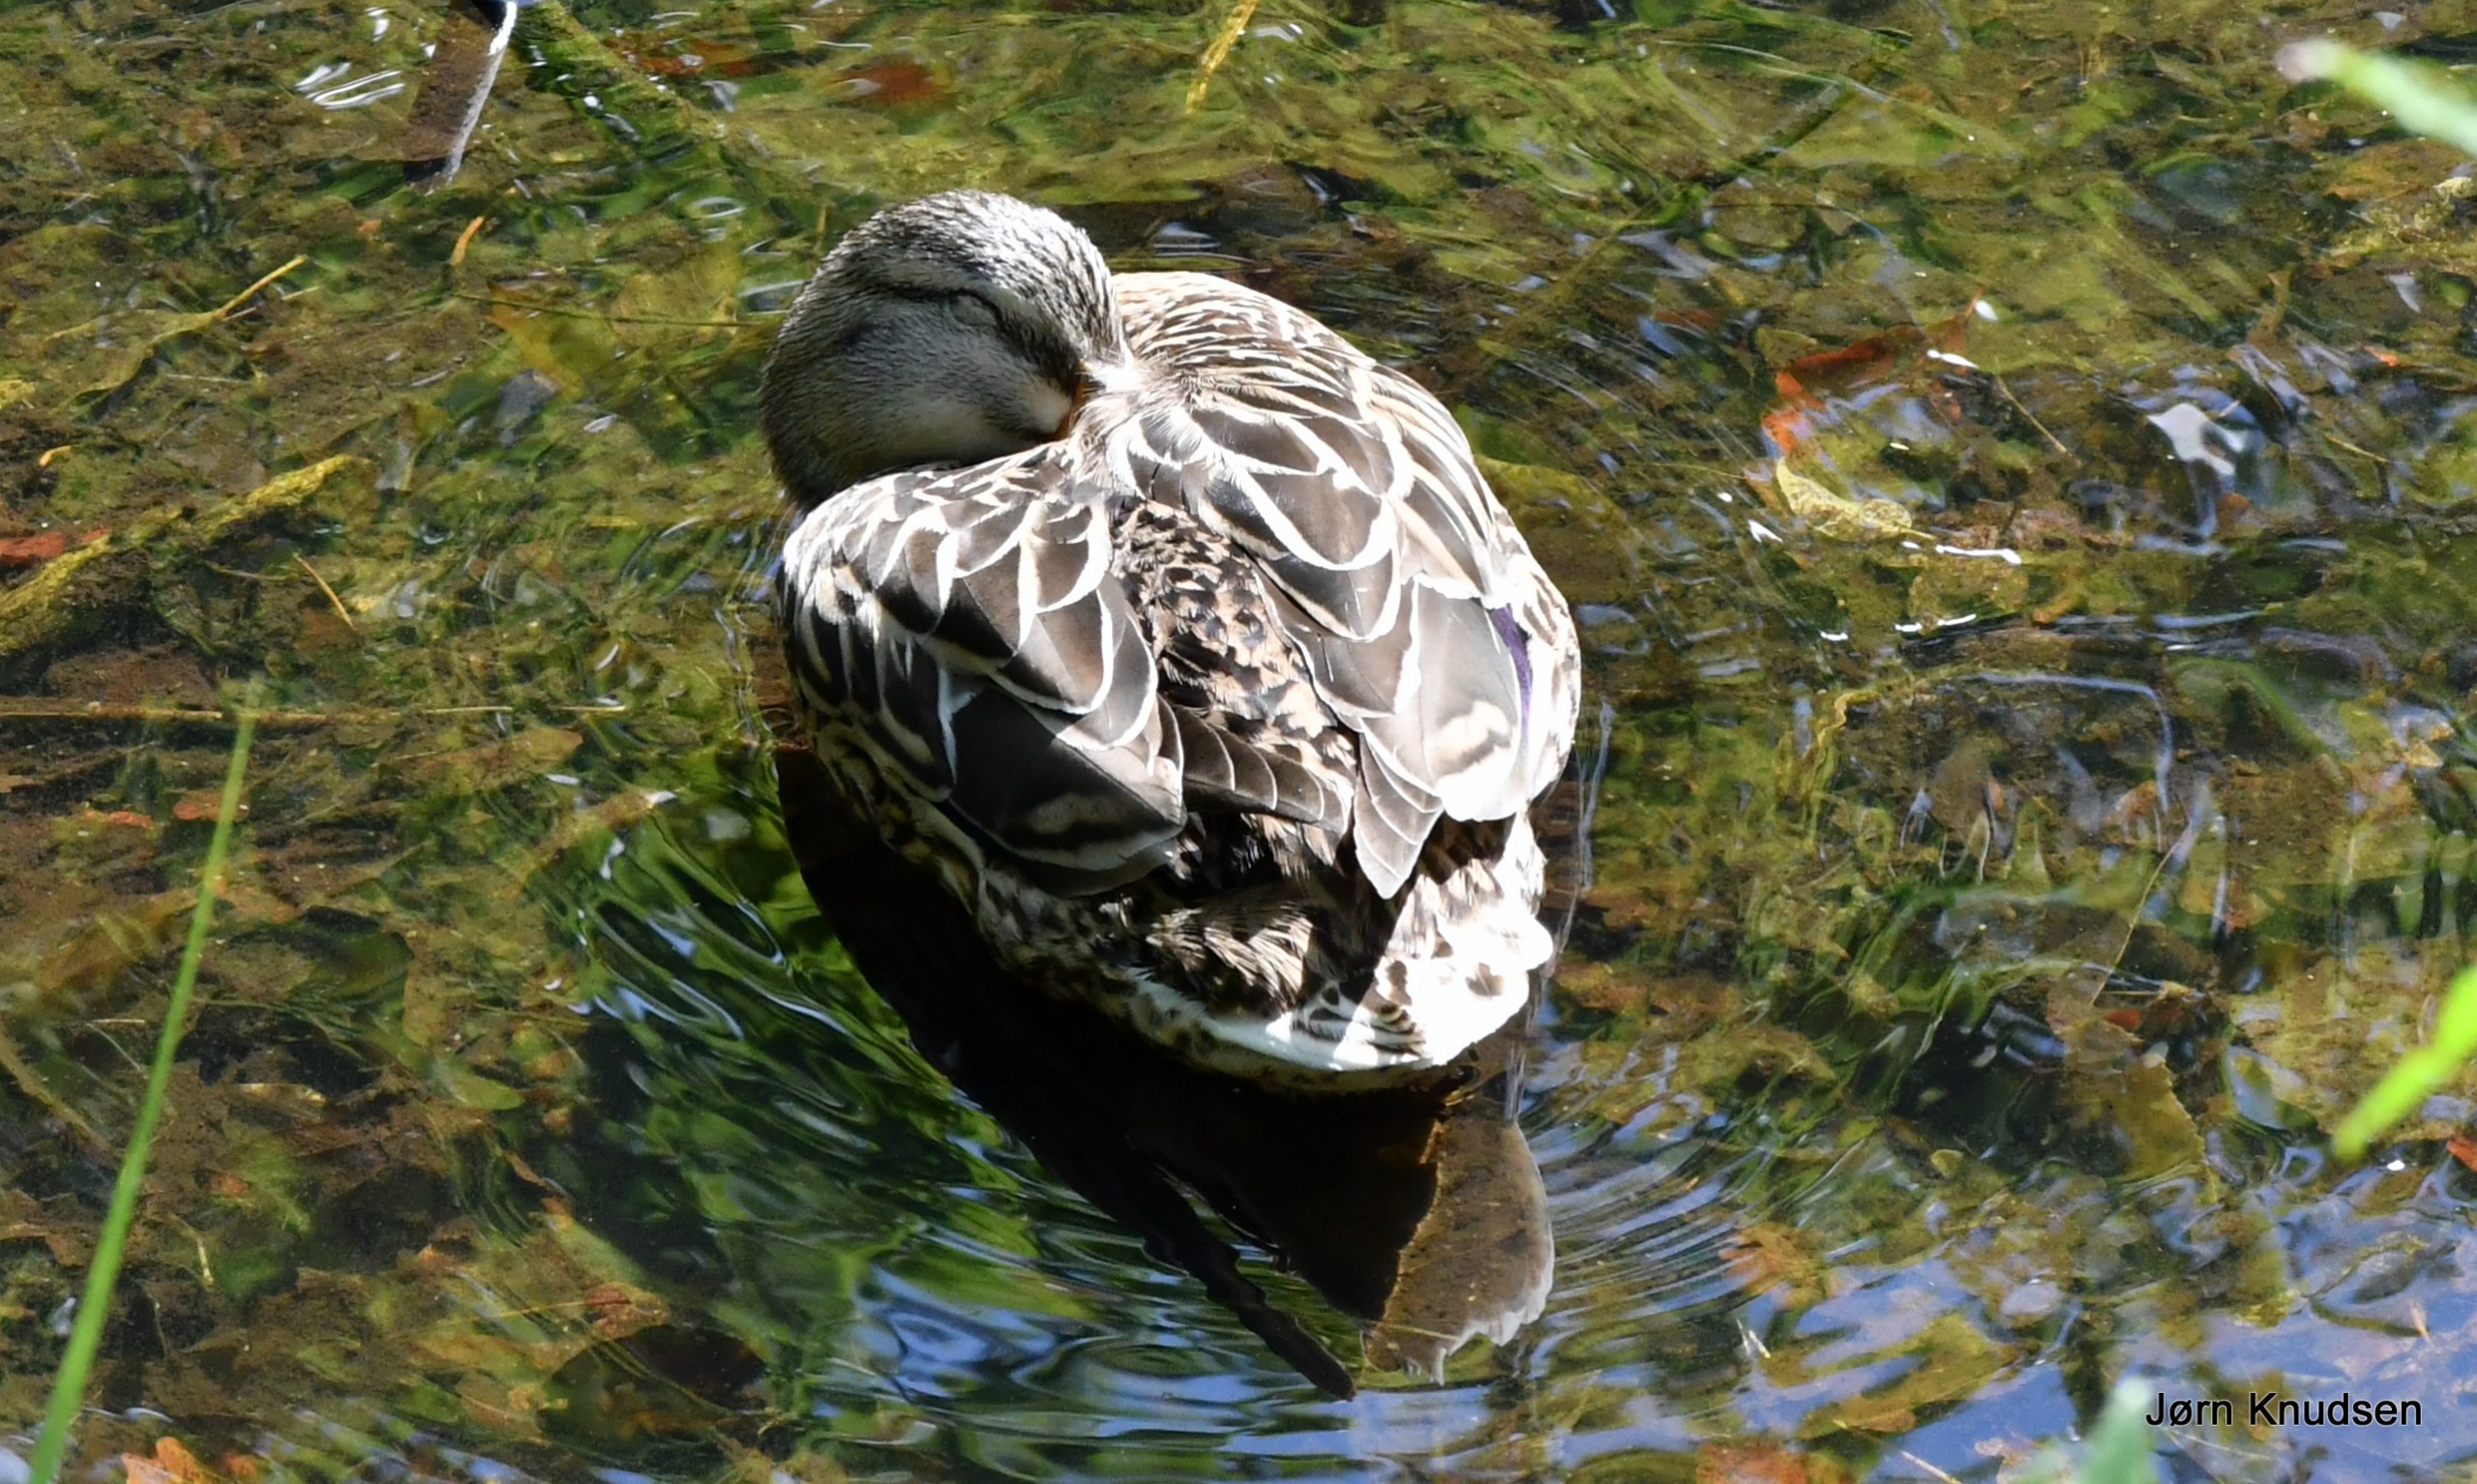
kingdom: Animalia
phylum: Chordata
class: Aves
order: Anseriformes
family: Anatidae
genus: Anas
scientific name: Anas platyrhynchos
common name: Gråand
